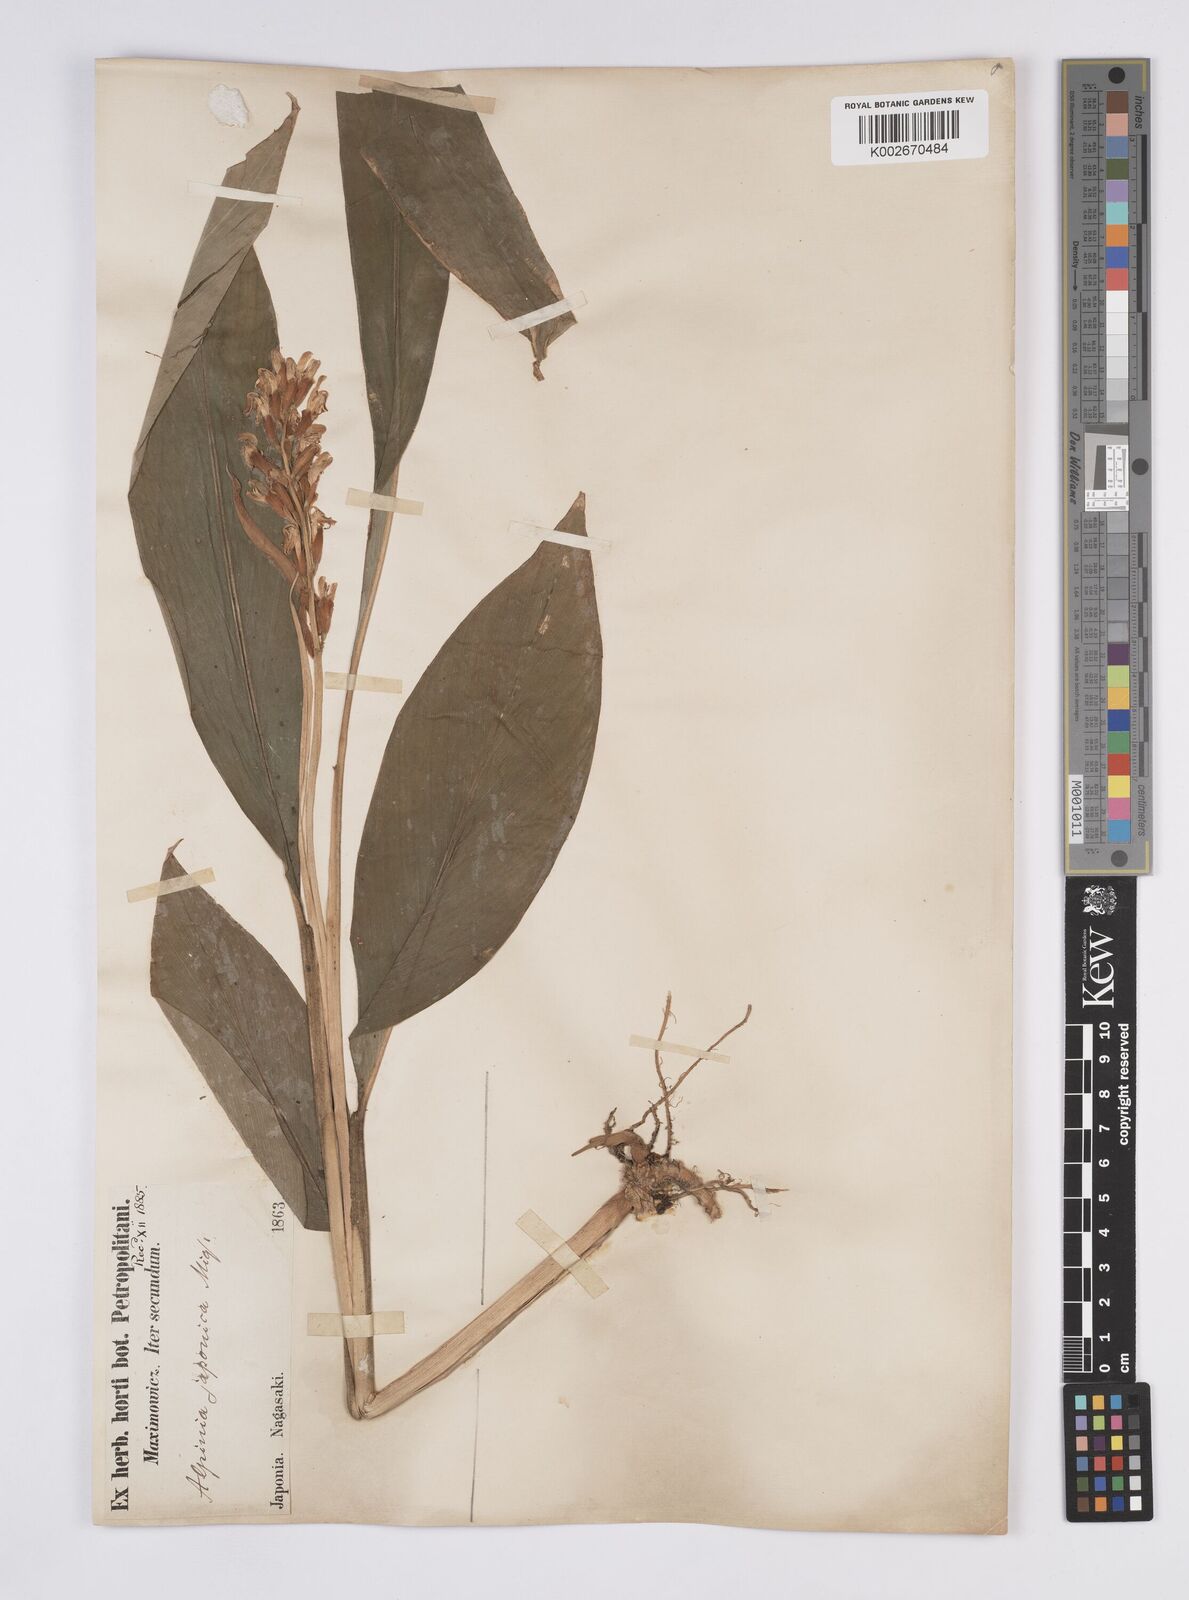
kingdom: Plantae
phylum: Tracheophyta
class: Liliopsida
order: Zingiberales
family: Zingiberaceae
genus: Alpinia
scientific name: Alpinia japonica
